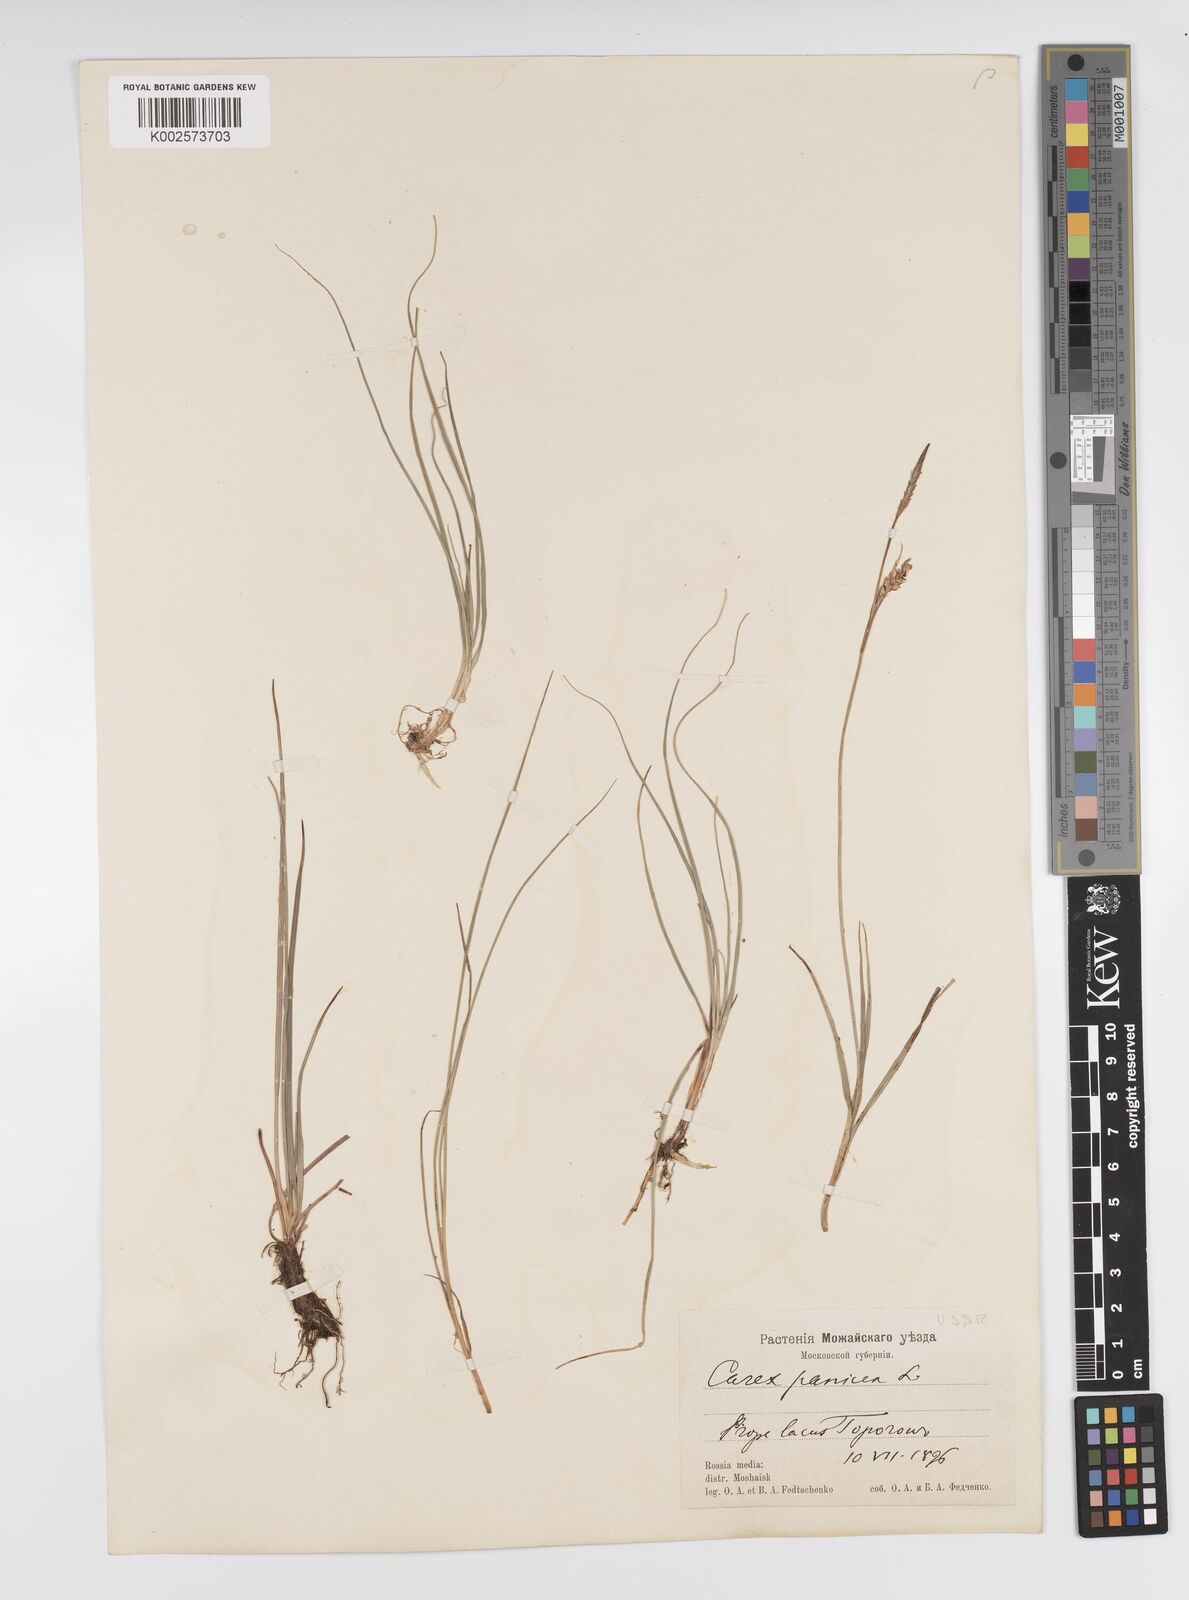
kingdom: Plantae
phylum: Tracheophyta
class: Liliopsida
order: Poales
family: Cyperaceae
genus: Carex
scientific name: Carex panicea
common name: Carnation sedge
